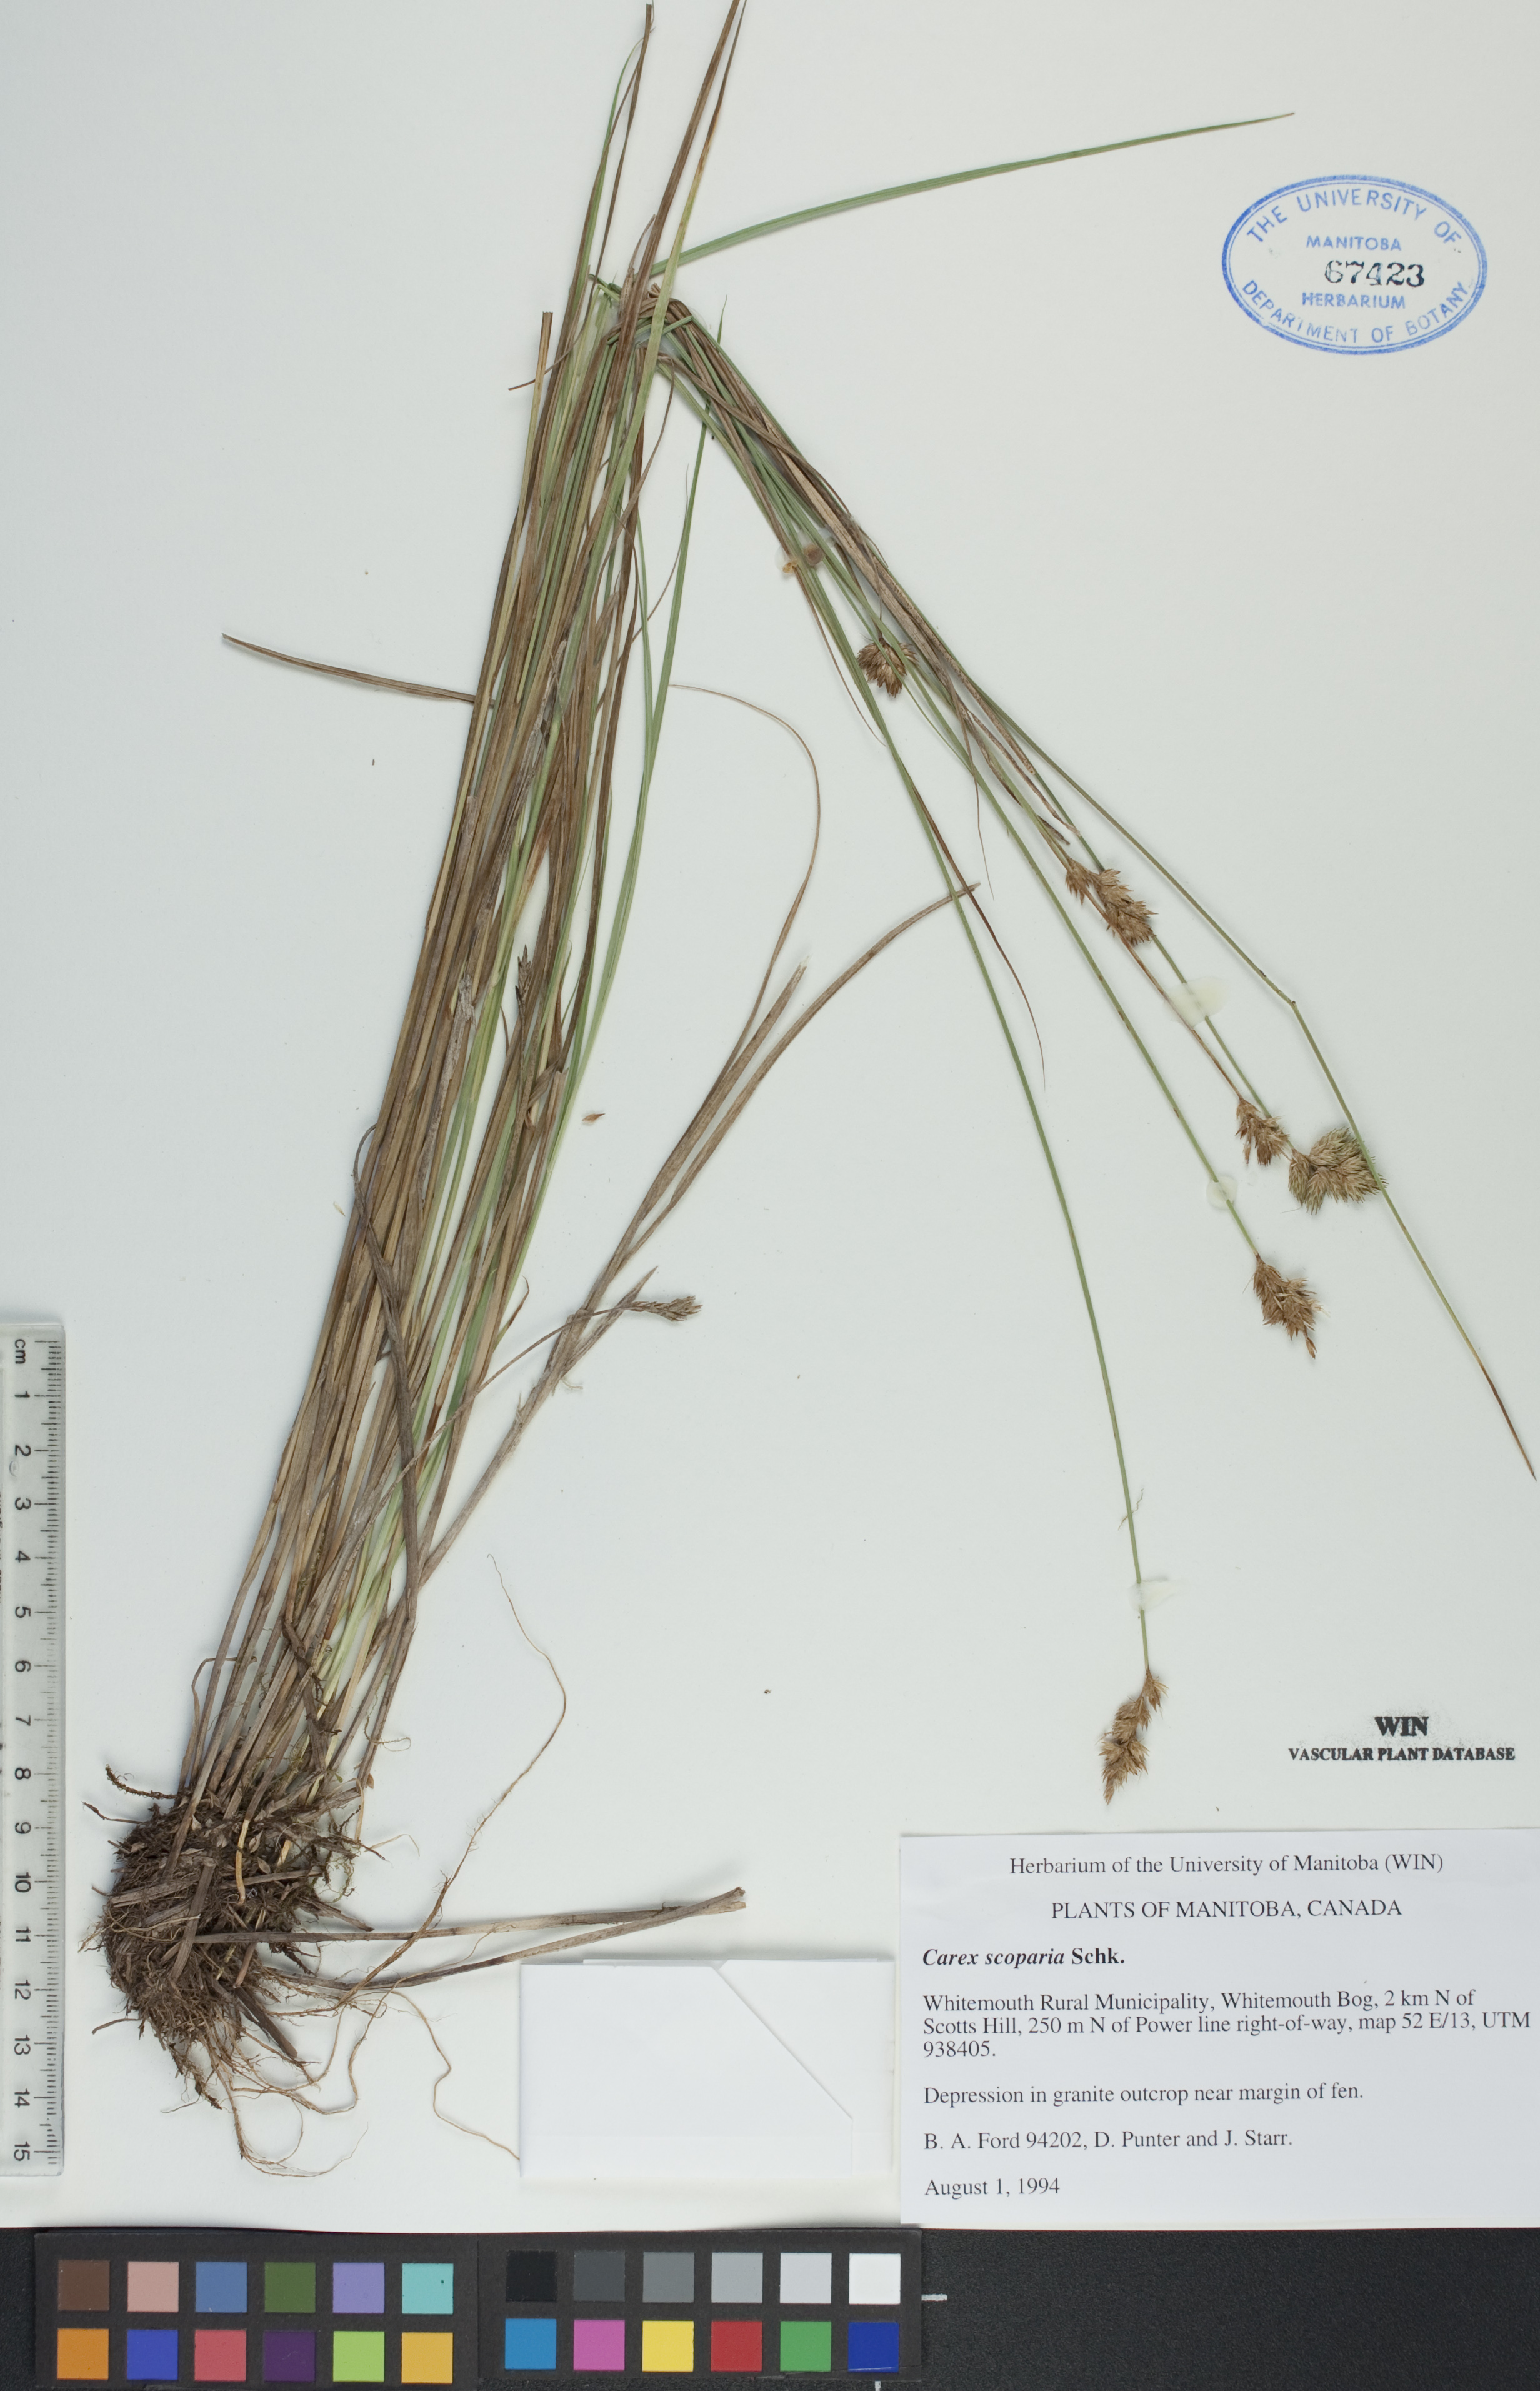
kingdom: Plantae
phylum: Tracheophyta
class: Liliopsida
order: Poales
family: Cyperaceae
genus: Carex
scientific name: Carex scoparia
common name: Broom sedge
